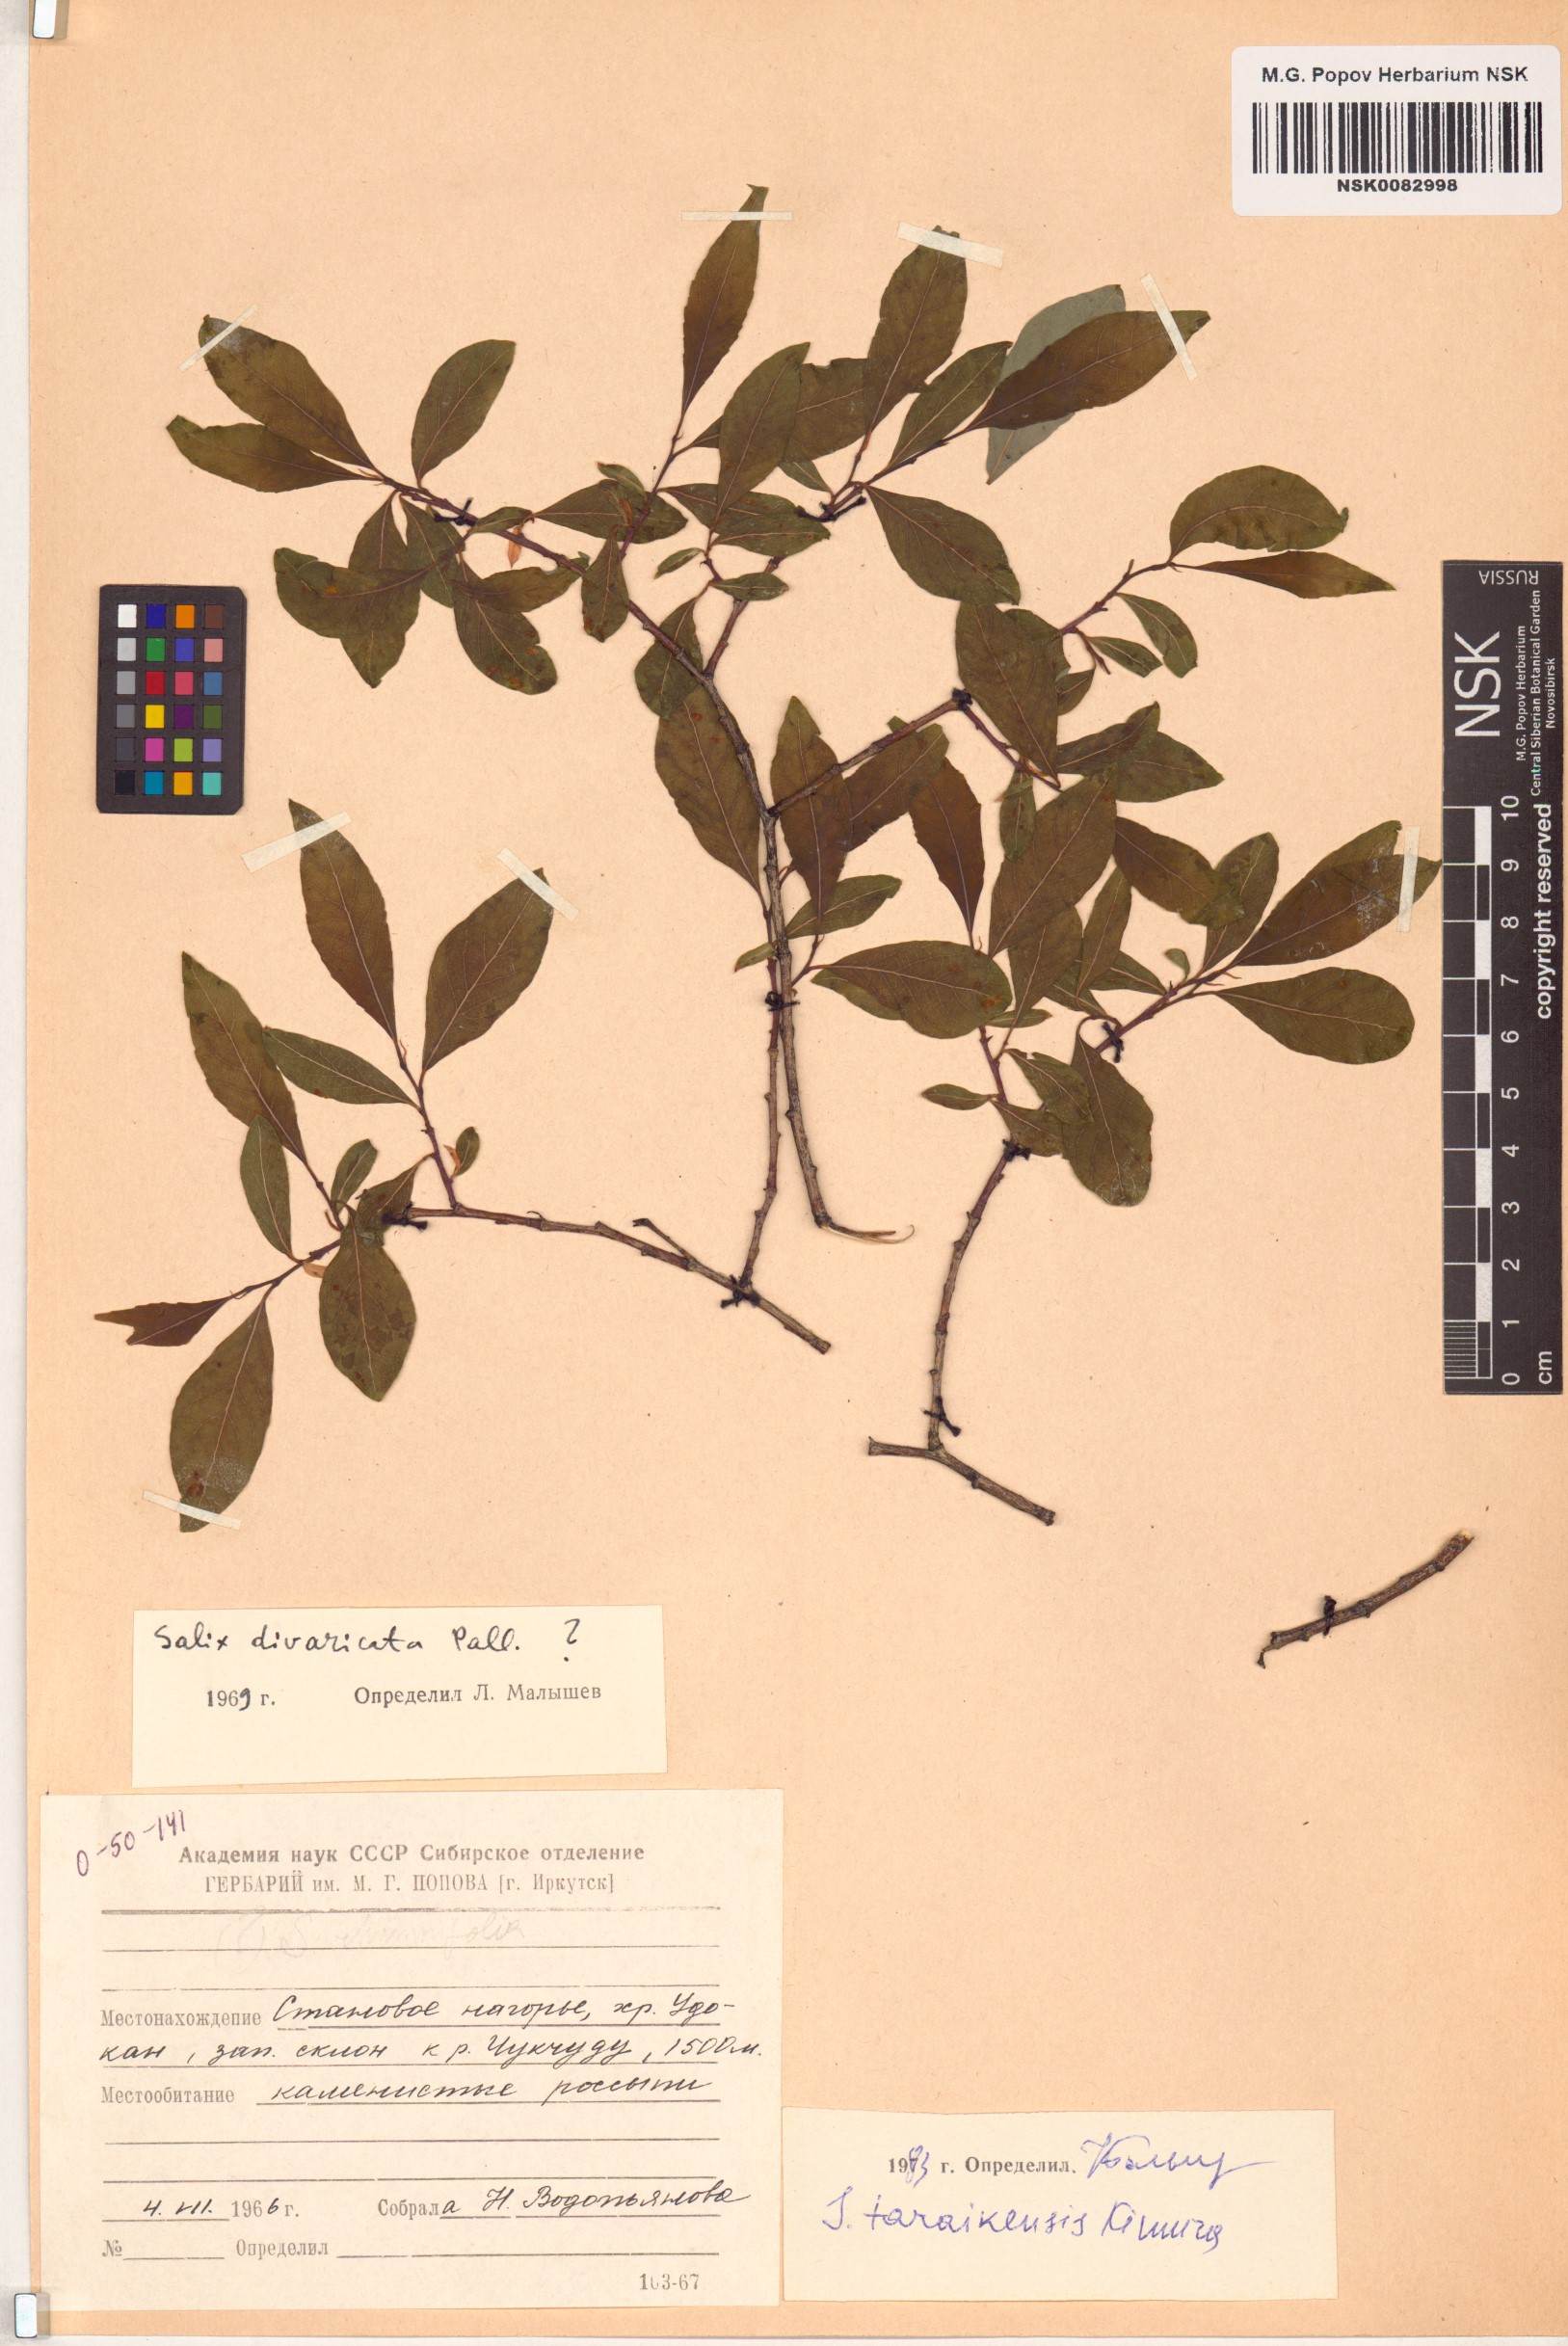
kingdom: Plantae
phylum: Tracheophyta
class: Magnoliopsida
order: Malpighiales
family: Salicaceae
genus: Salix
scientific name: Salix taraikensis
